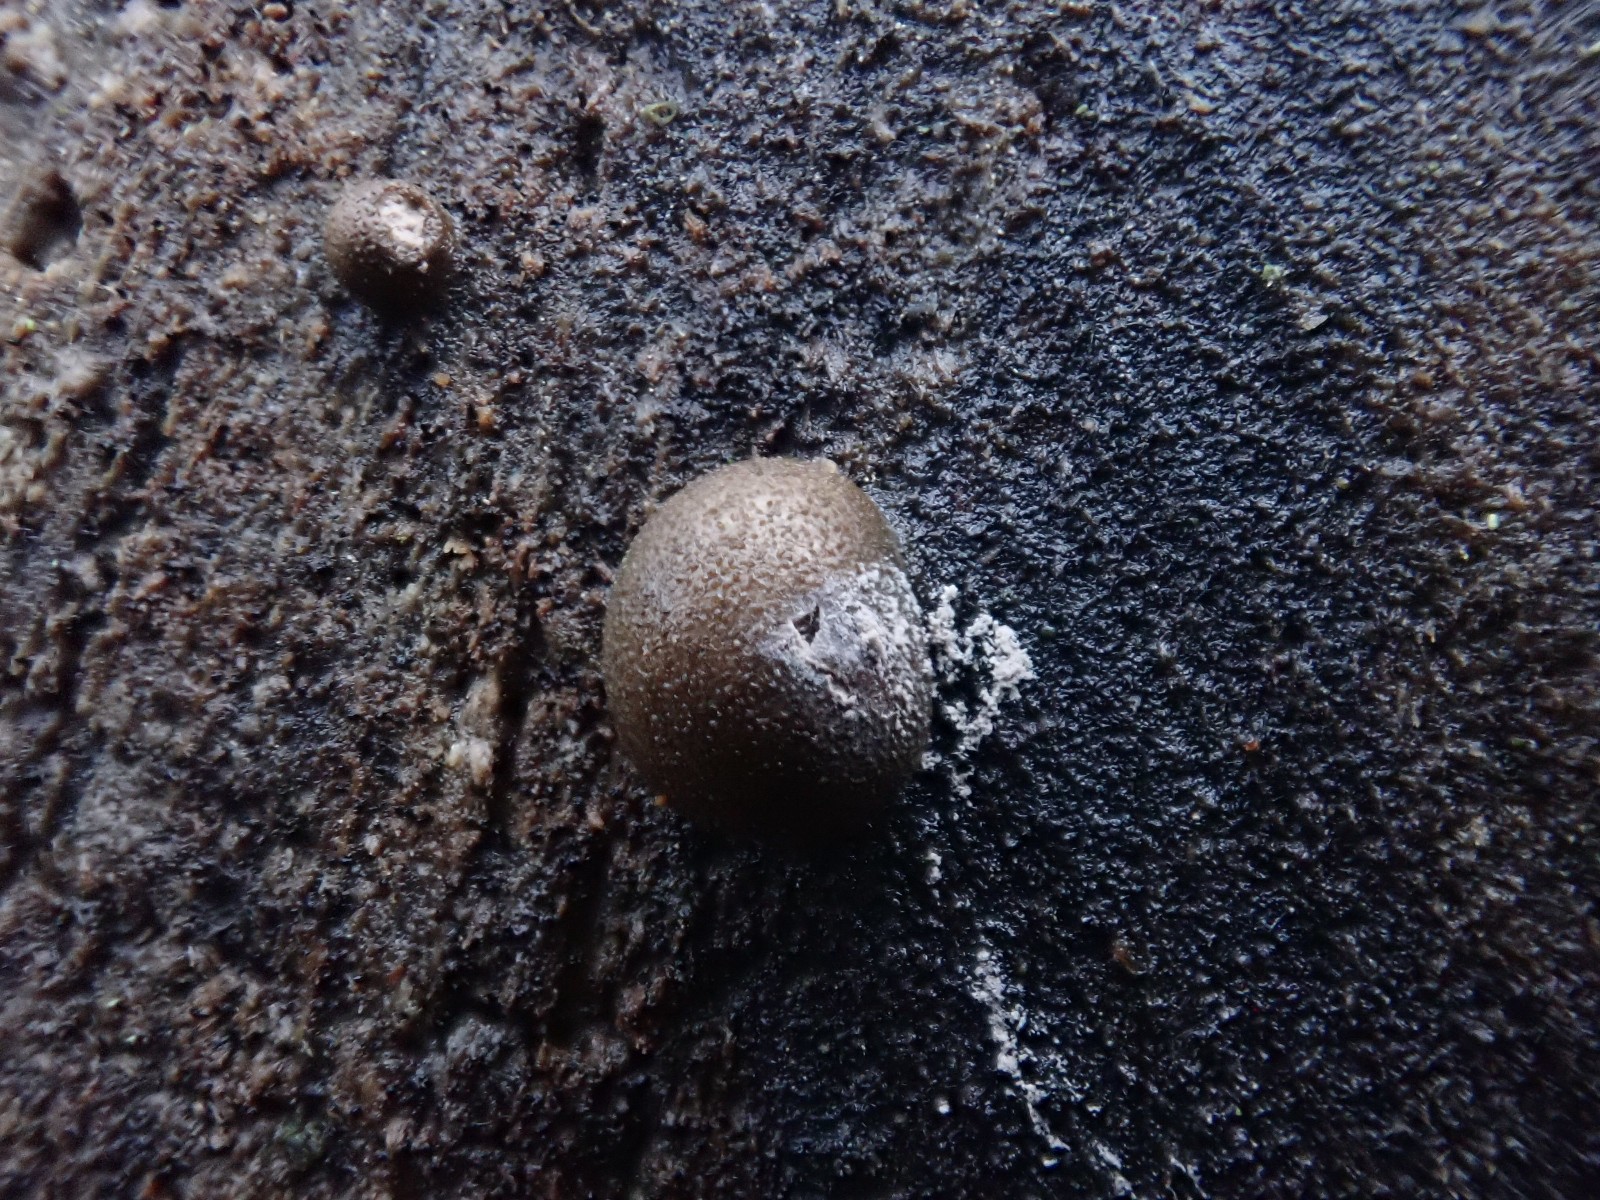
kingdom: Protozoa
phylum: Mycetozoa
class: Myxomycetes
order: Cribrariales
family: Tubiferaceae
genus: Lycogala
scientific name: Lycogala epidendrum
